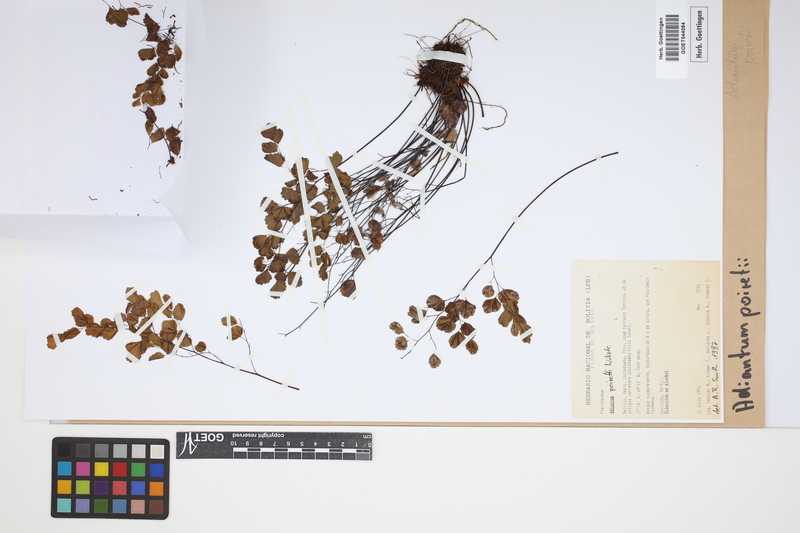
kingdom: Plantae
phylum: Tracheophyta
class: Polypodiopsida
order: Polypodiales
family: Pteridaceae
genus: Adiantum
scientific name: Adiantum poiretii
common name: Mexican maidenhair
